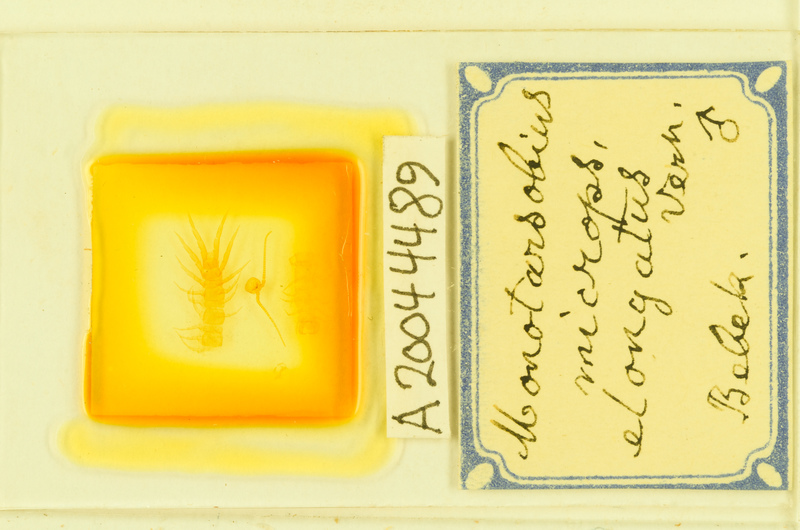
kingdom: Animalia
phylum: Arthropoda
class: Chilopoda
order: Lithobiomorpha
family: Lithobiidae
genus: Monotarsobius
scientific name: Monotarsobius microps
